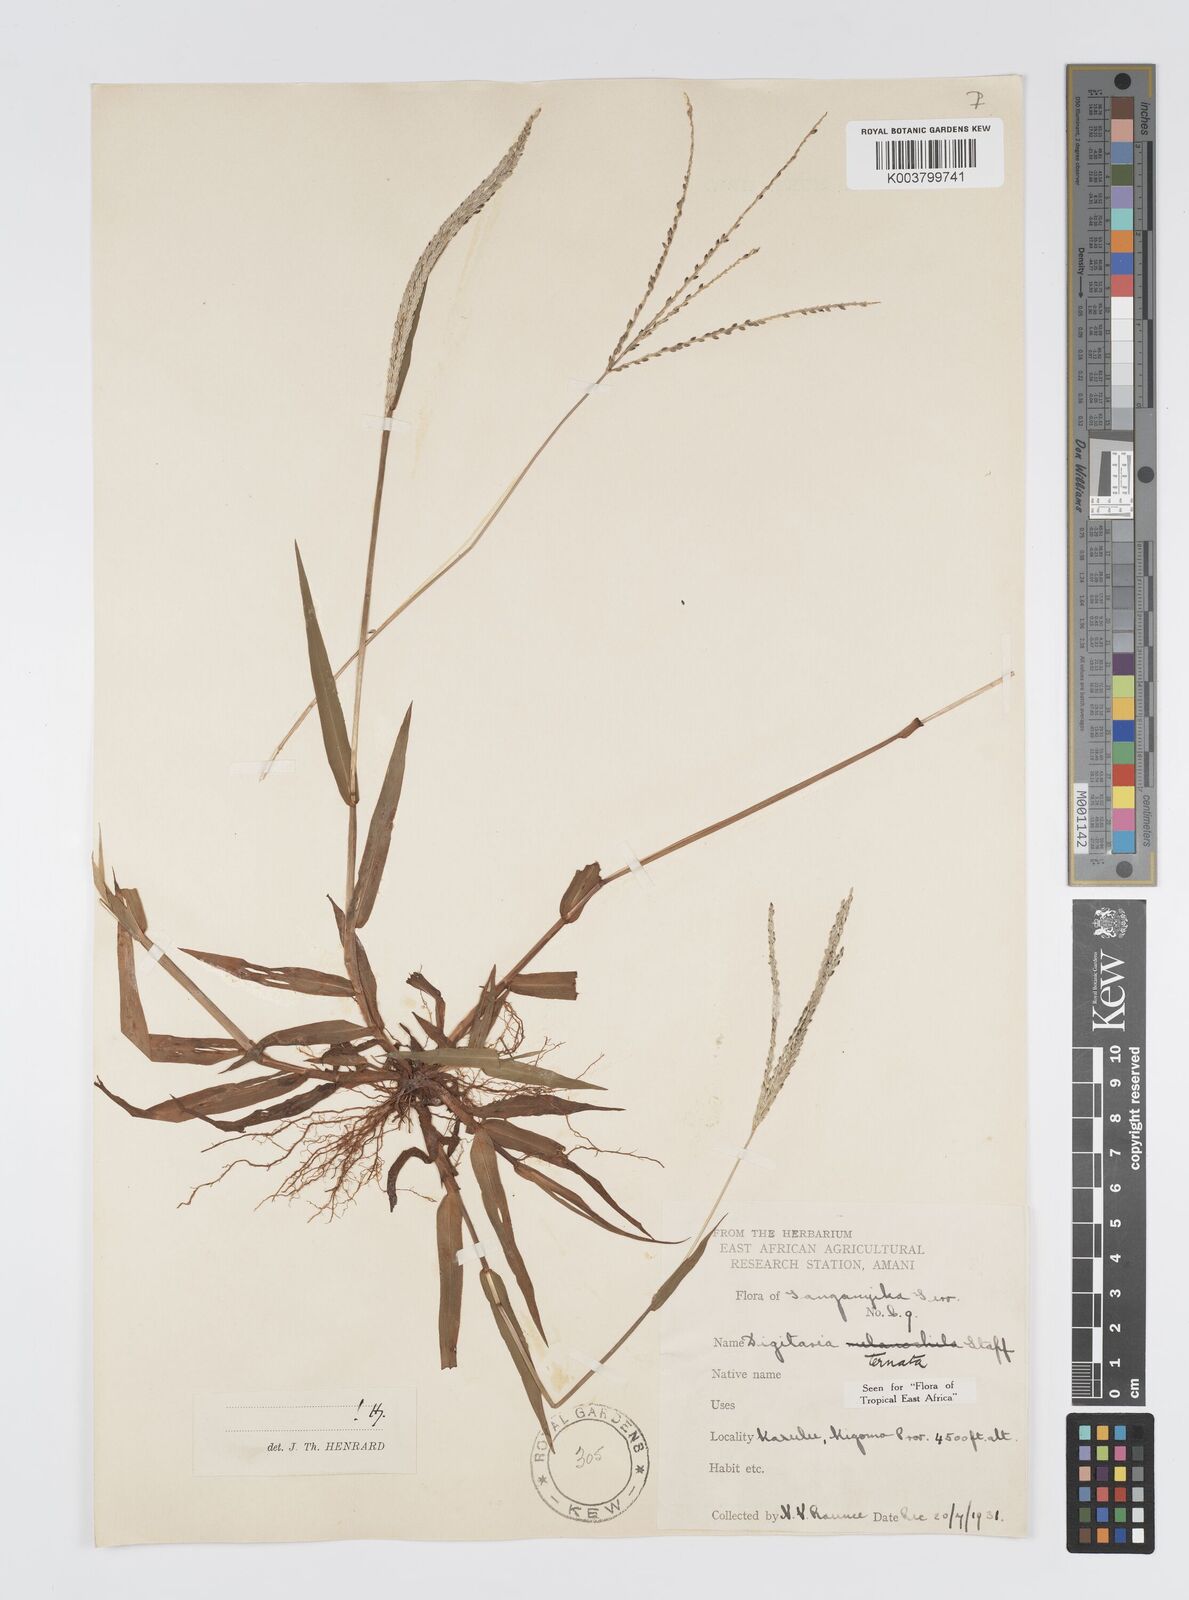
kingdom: Plantae
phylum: Tracheophyta
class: Liliopsida
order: Poales
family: Poaceae
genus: Digitaria
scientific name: Digitaria ternata
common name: Blackseed crabgrass
